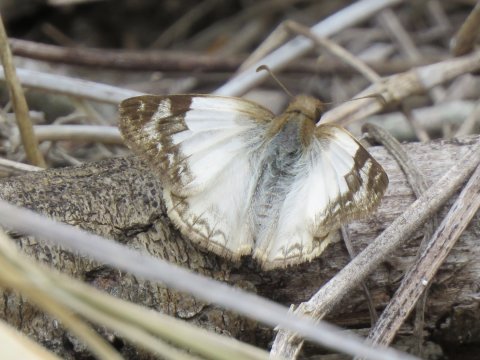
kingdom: Animalia
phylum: Arthropoda
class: Insecta
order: Lepidoptera
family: Hesperiidae
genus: Heliopetes
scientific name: Heliopetes laviana
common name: Laviana White-Skipper
